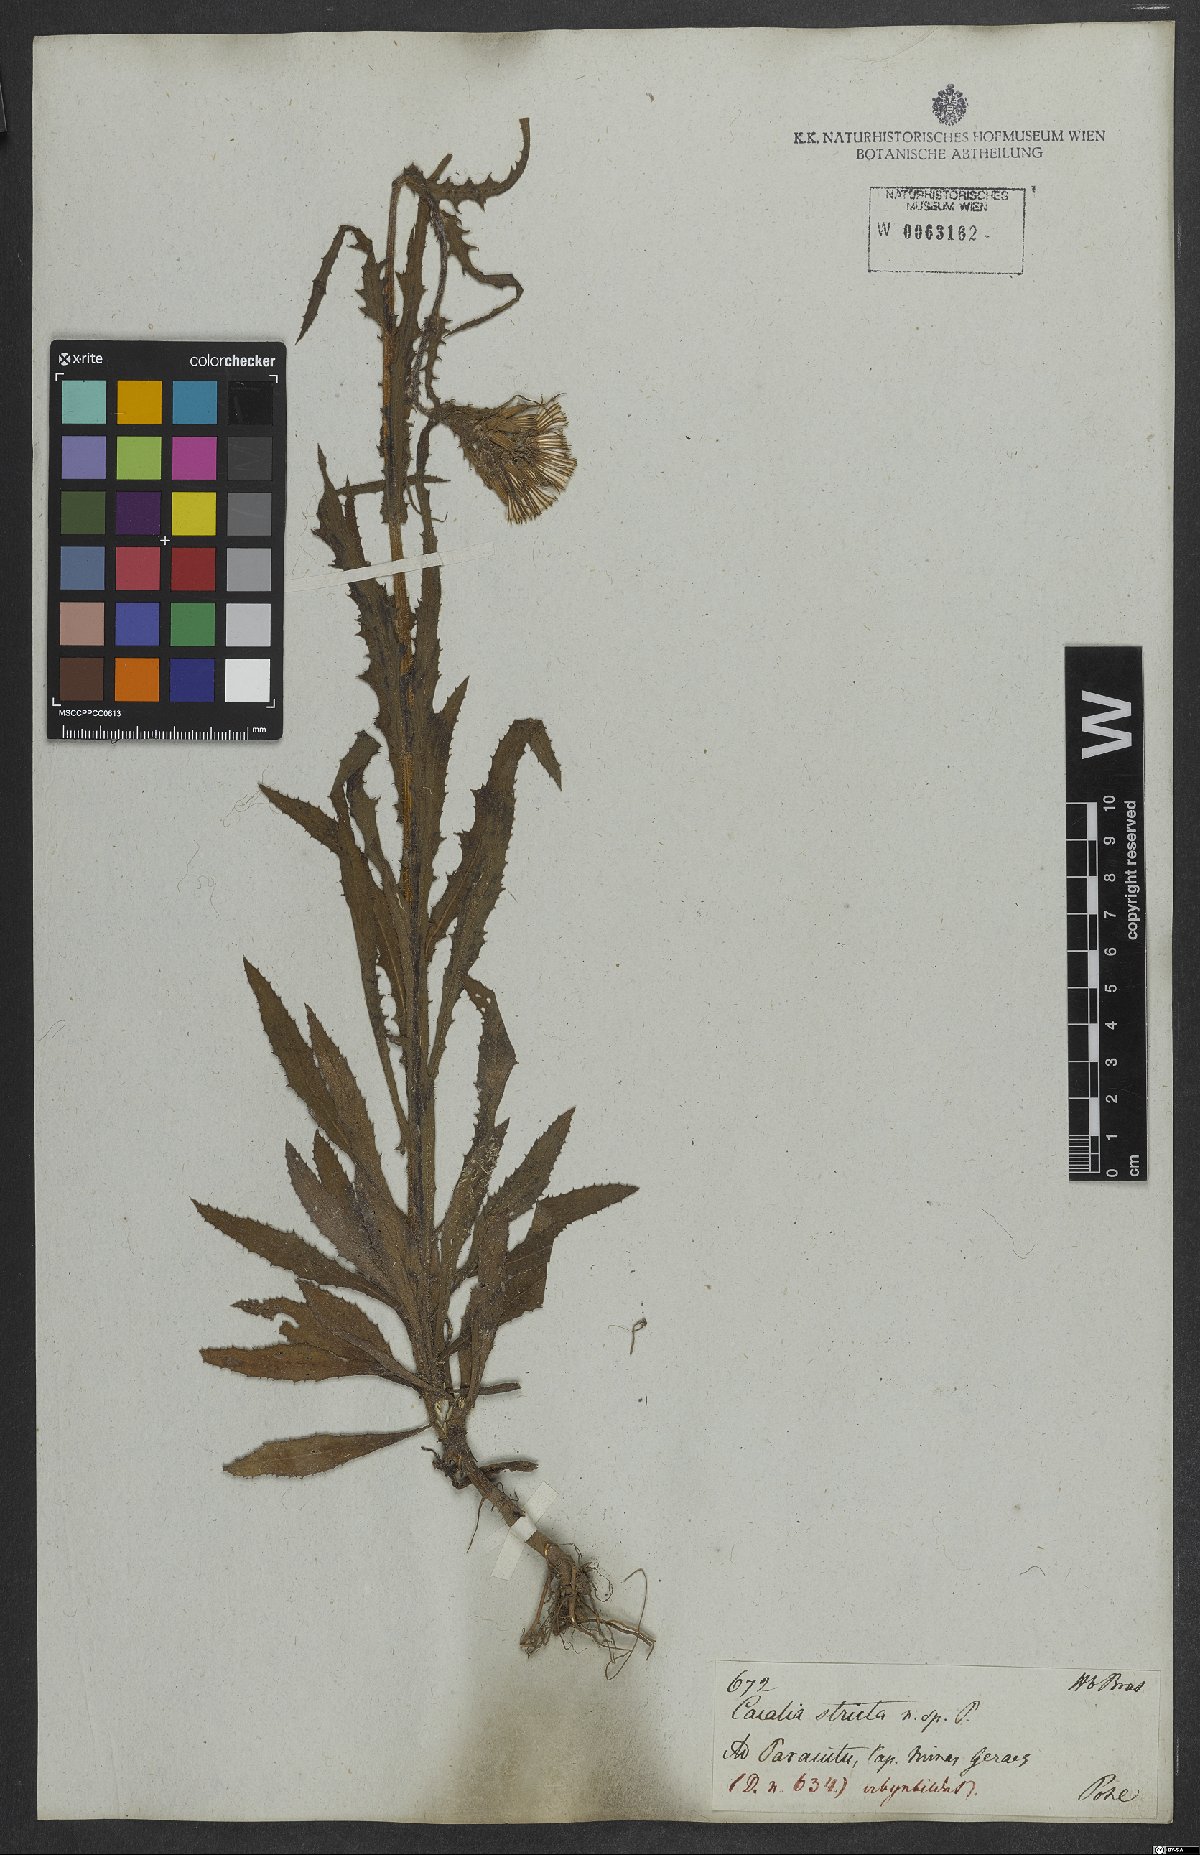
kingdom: Plantae
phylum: Tracheophyta
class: Magnoliopsida
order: Asterales
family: Asteraceae
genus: Erechtites
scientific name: Erechtites hieraciifolius
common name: American burnweed
